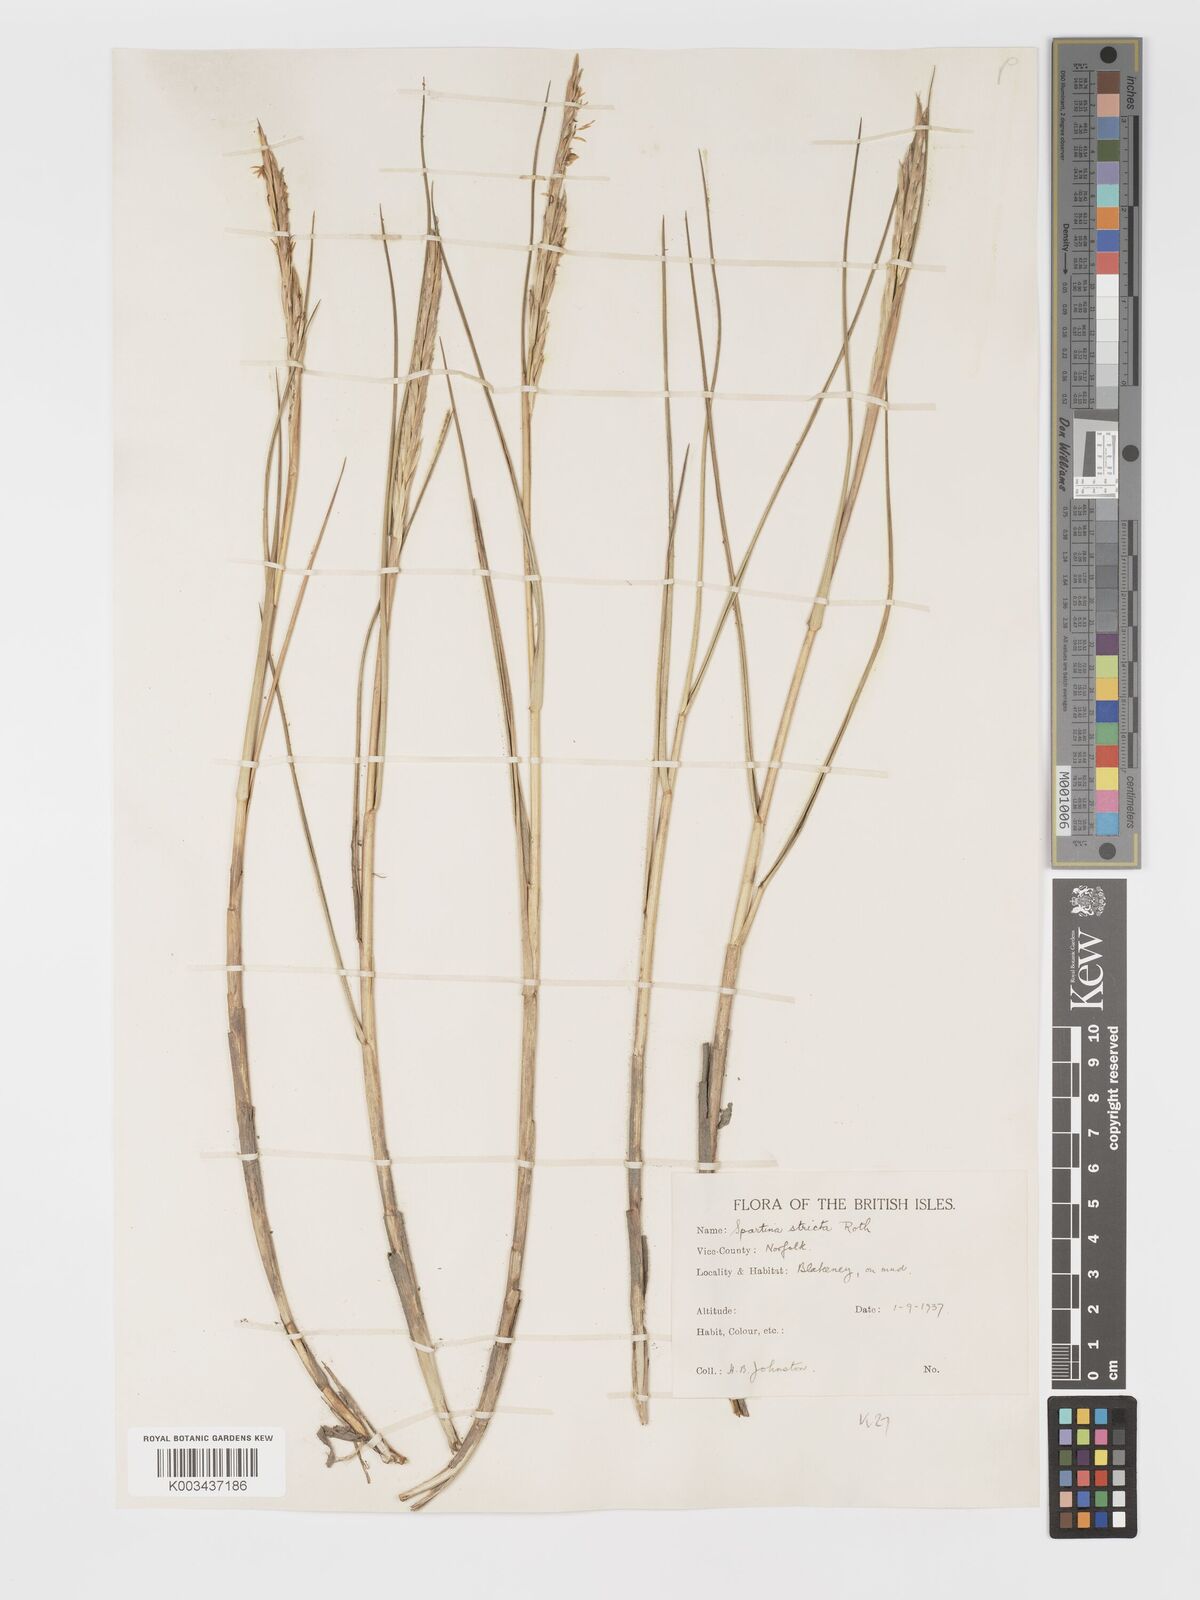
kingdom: Plantae
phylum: Tracheophyta
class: Liliopsida
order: Poales
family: Poaceae
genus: Sporobolus
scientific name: Sporobolus maritimus
